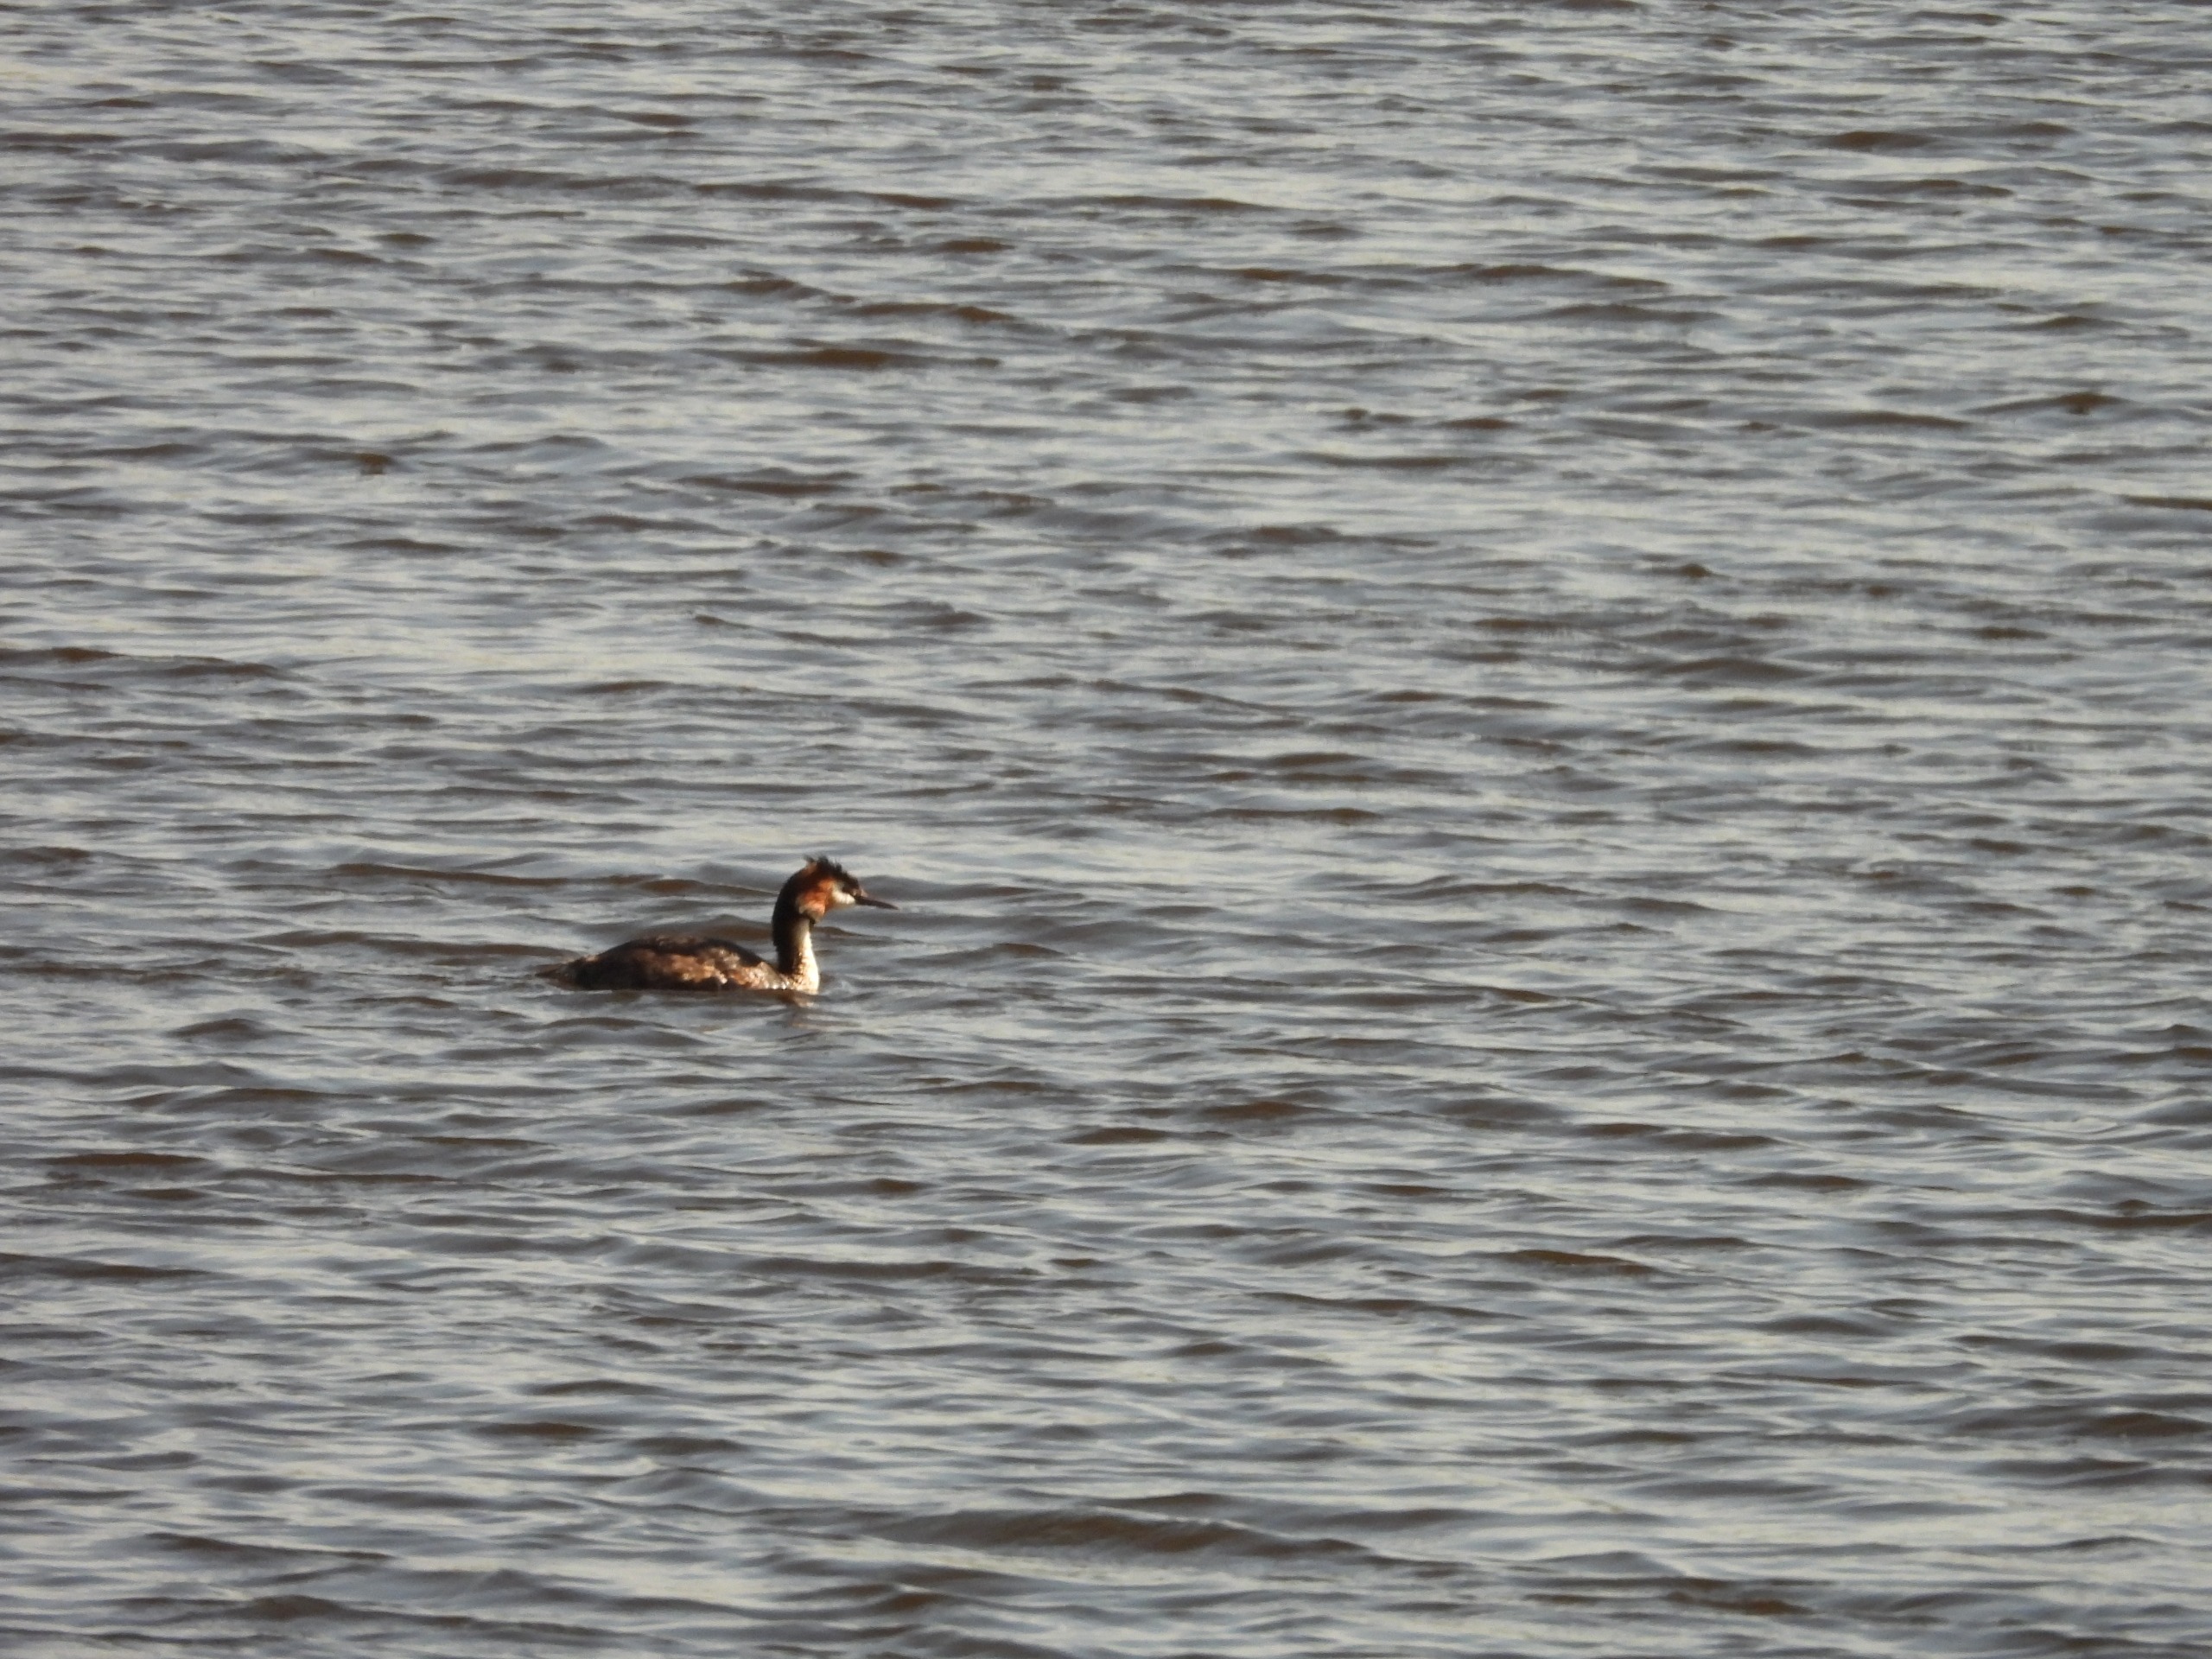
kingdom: Animalia
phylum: Chordata
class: Aves
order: Podicipediformes
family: Podicipedidae
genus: Podiceps
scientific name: Podiceps cristatus
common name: Toppet lappedykker
